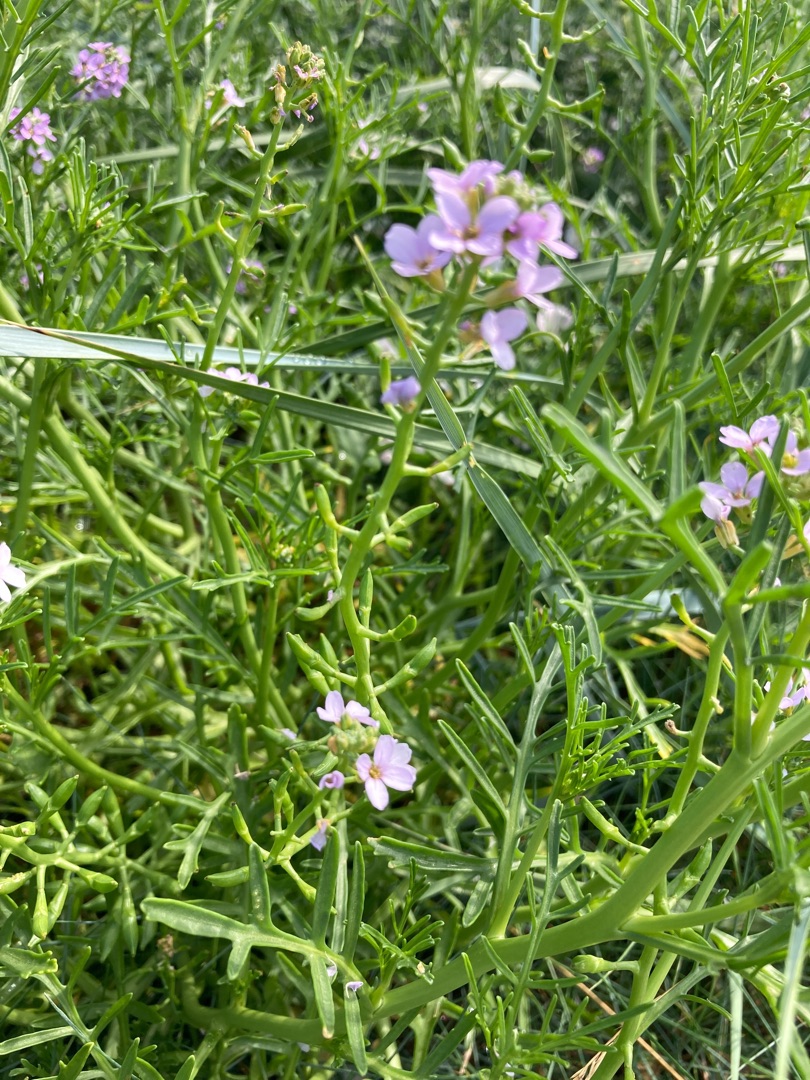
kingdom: Plantae
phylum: Tracheophyta
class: Magnoliopsida
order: Brassicales
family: Brassicaceae
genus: Cakile
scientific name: Cakile maritima
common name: Østersø-strandsennep
